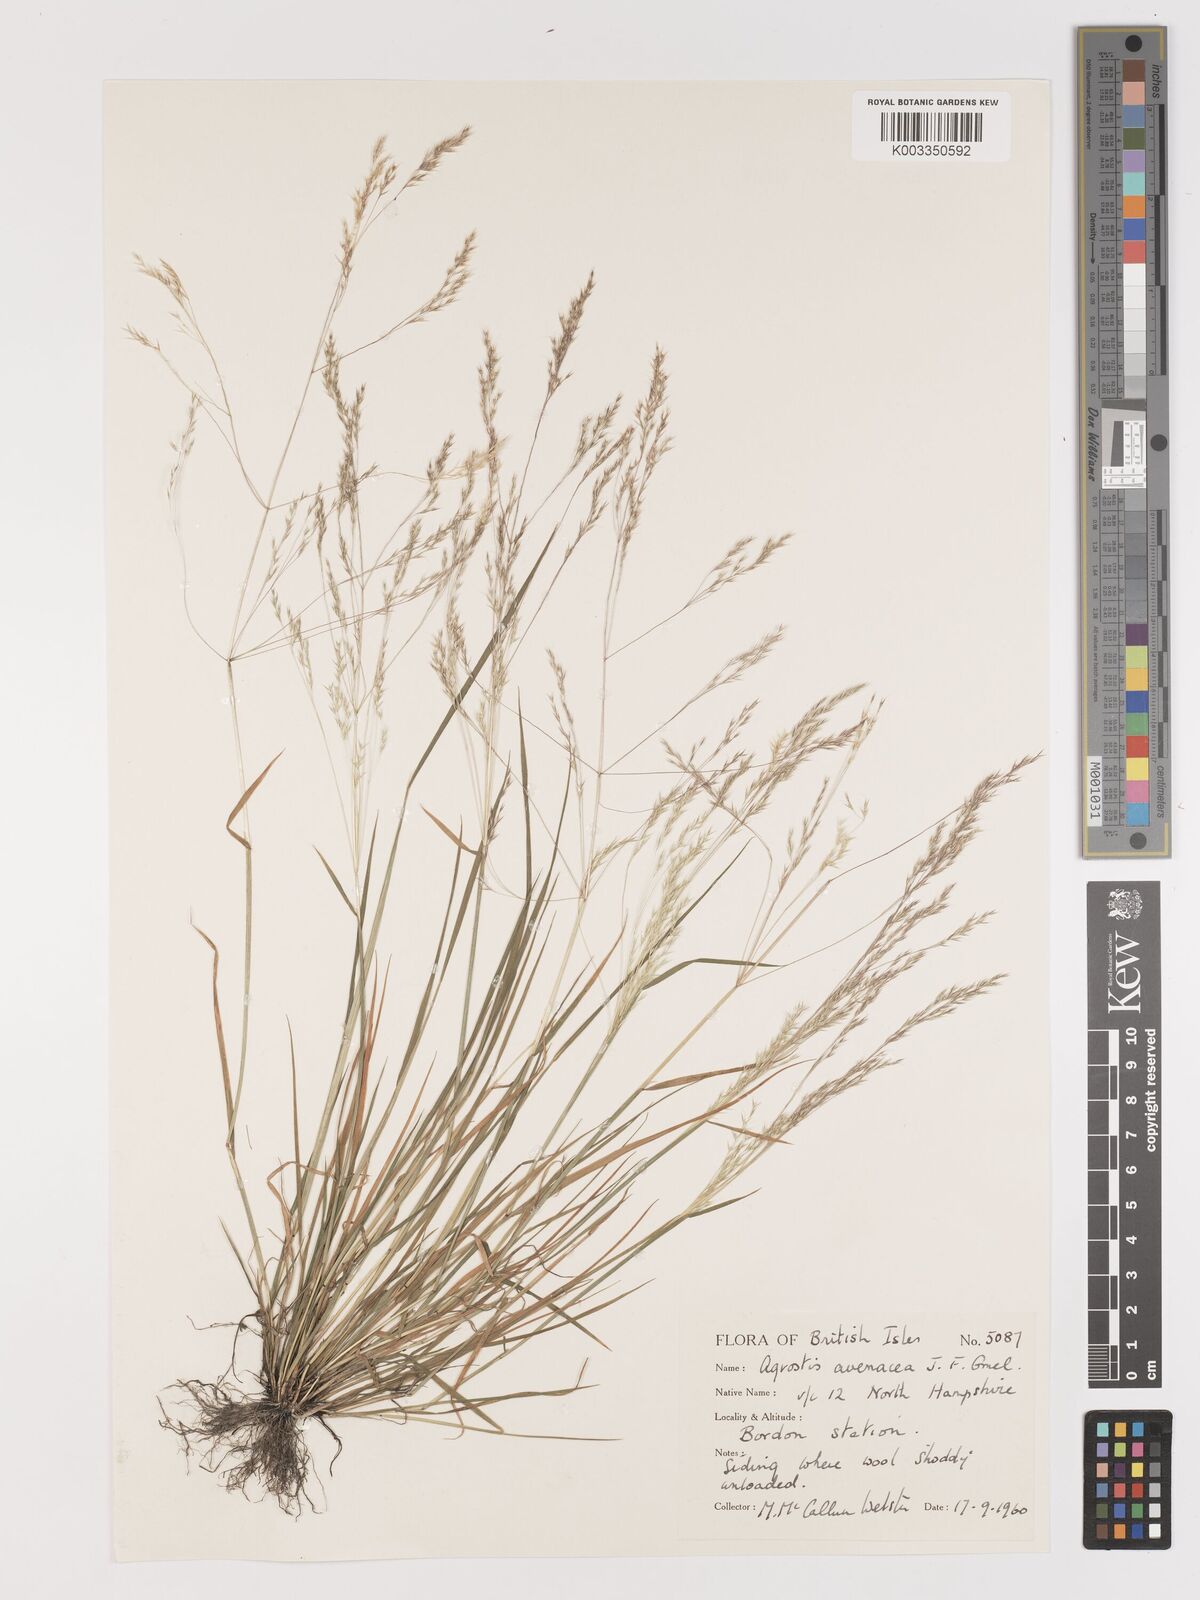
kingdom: Plantae
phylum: Tracheophyta
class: Liliopsida
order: Poales
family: Poaceae
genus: Lachnagrostis
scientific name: Lachnagrostis filiformis
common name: Bentgrass
